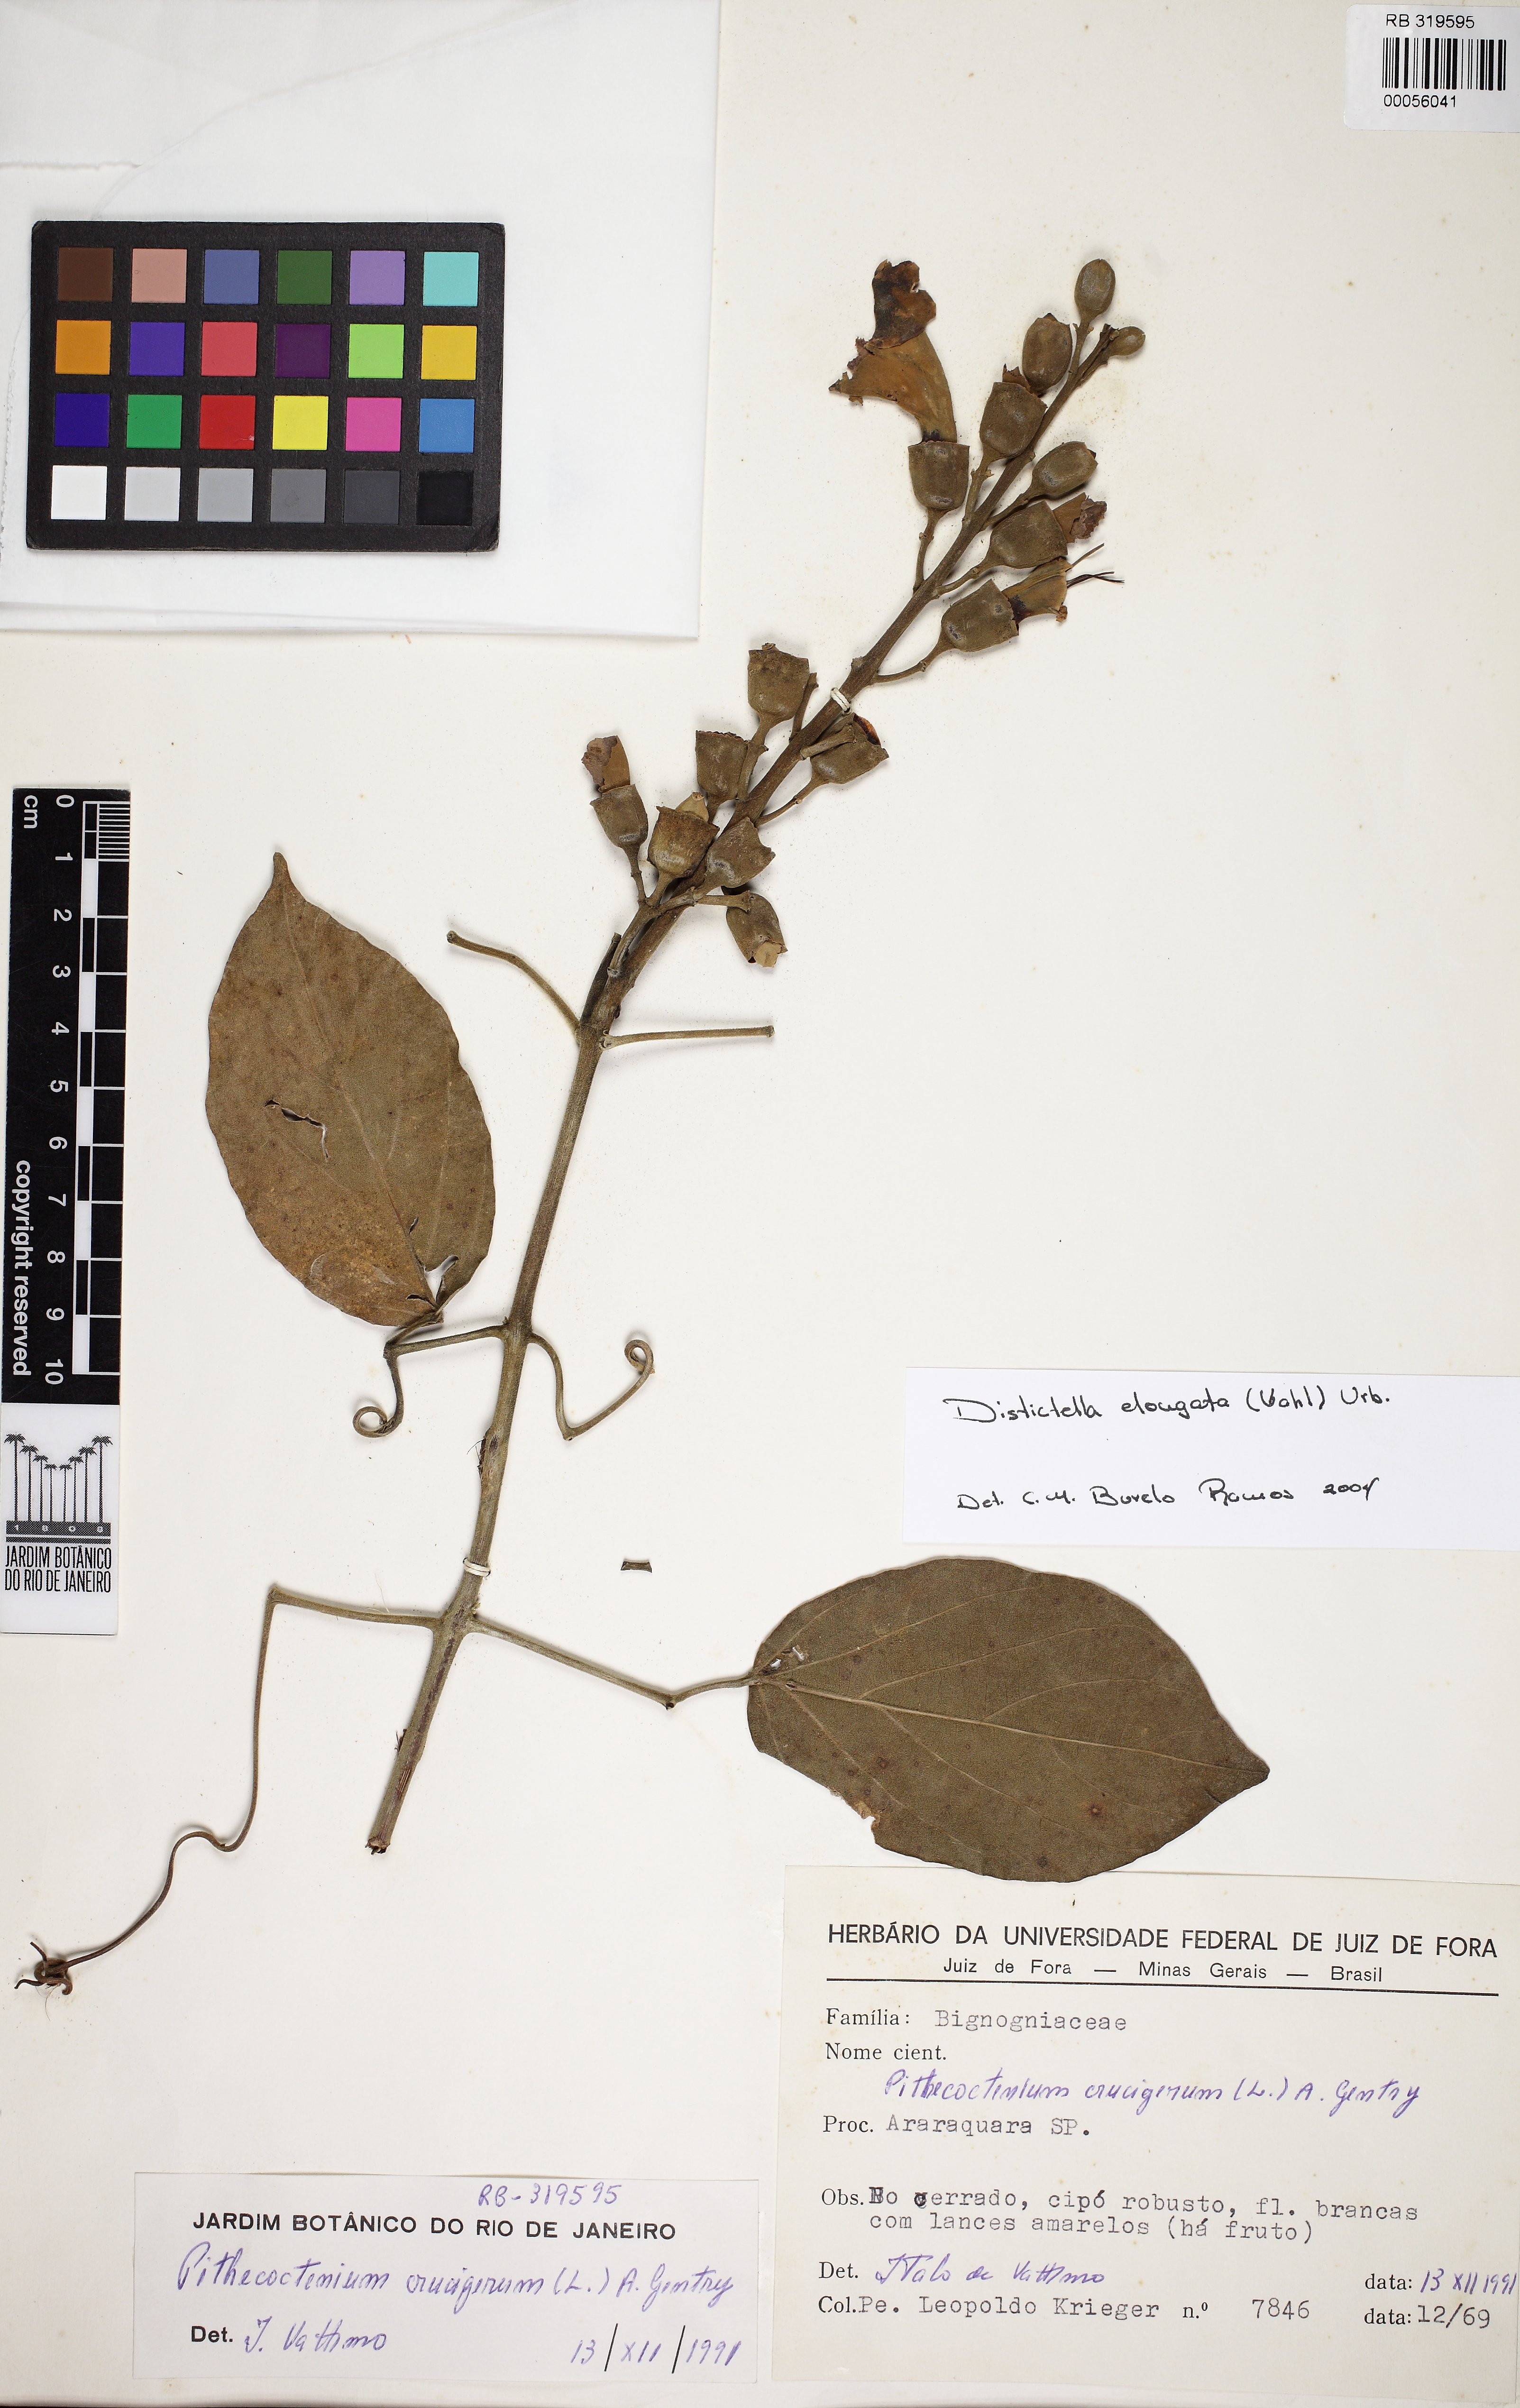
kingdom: Plantae
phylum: Tracheophyta
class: Magnoliopsida
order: Lamiales
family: Bignoniaceae
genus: Amphilophium
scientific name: Amphilophium elongatum
